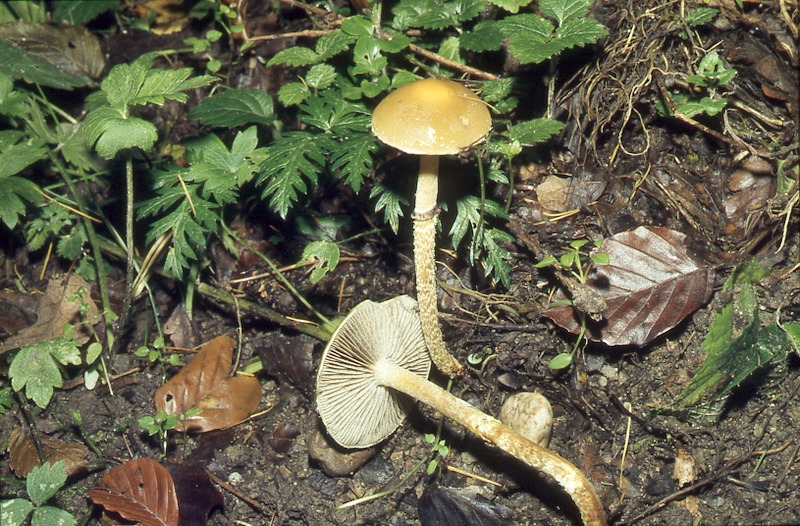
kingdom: Fungi
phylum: Basidiomycota
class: Agaricomycetes
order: Agaricales
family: Strophariaceae
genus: Protostropharia
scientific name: Protostropharia semiglobata
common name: Dung roundhead
